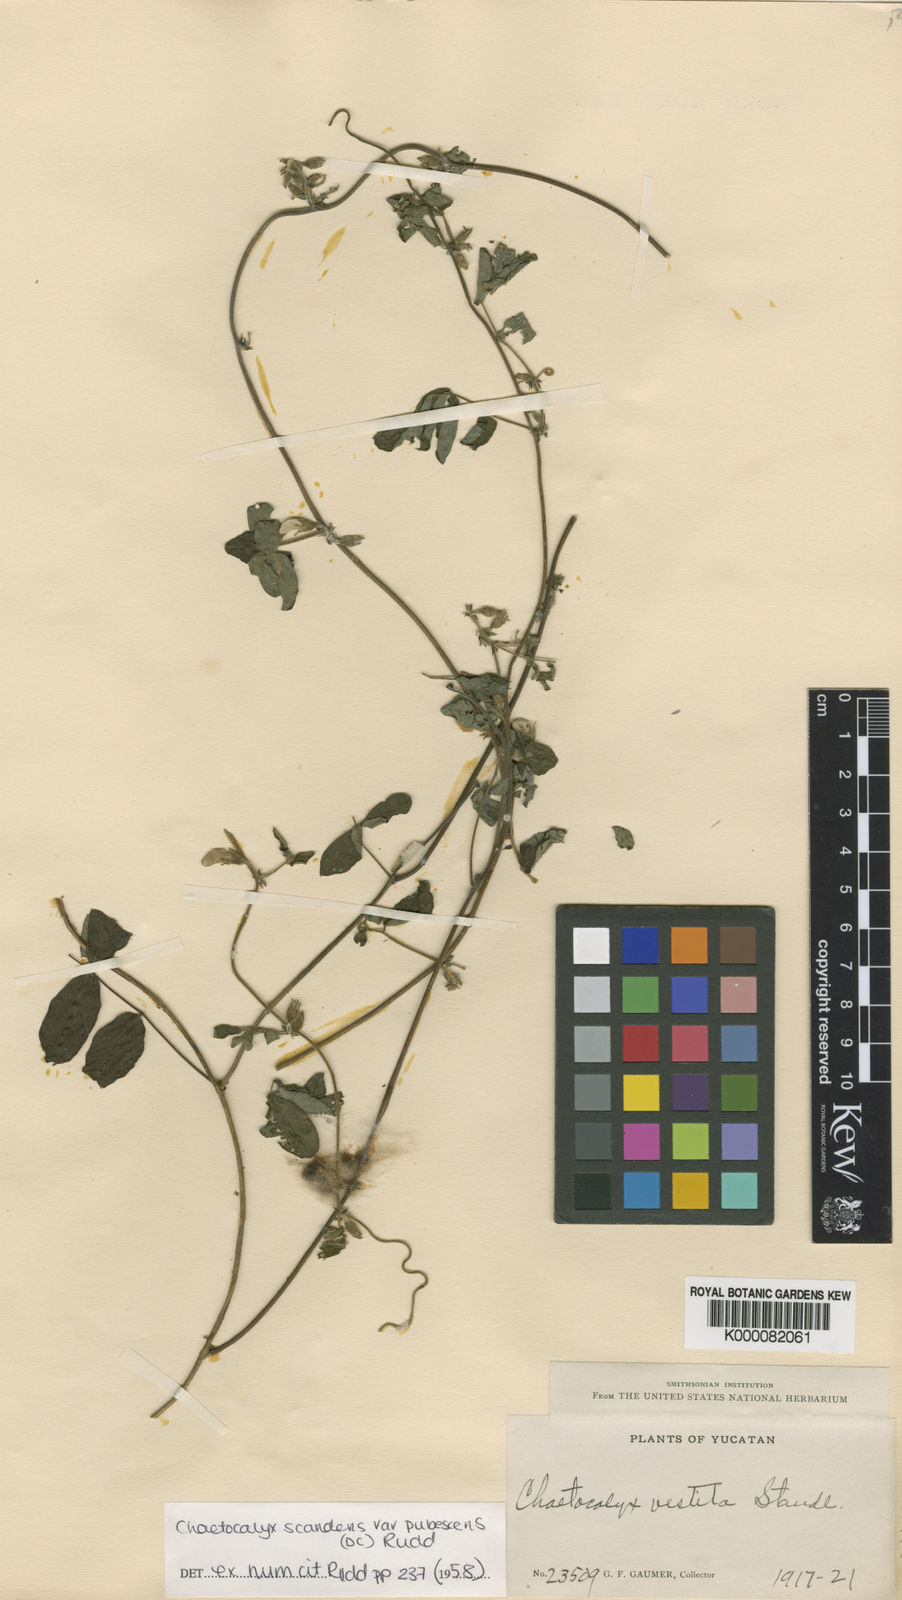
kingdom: Plantae
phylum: Tracheophyta
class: Magnoliopsida
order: Fabales
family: Fabaceae
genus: Nissolia
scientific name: Nissolia vincentina
